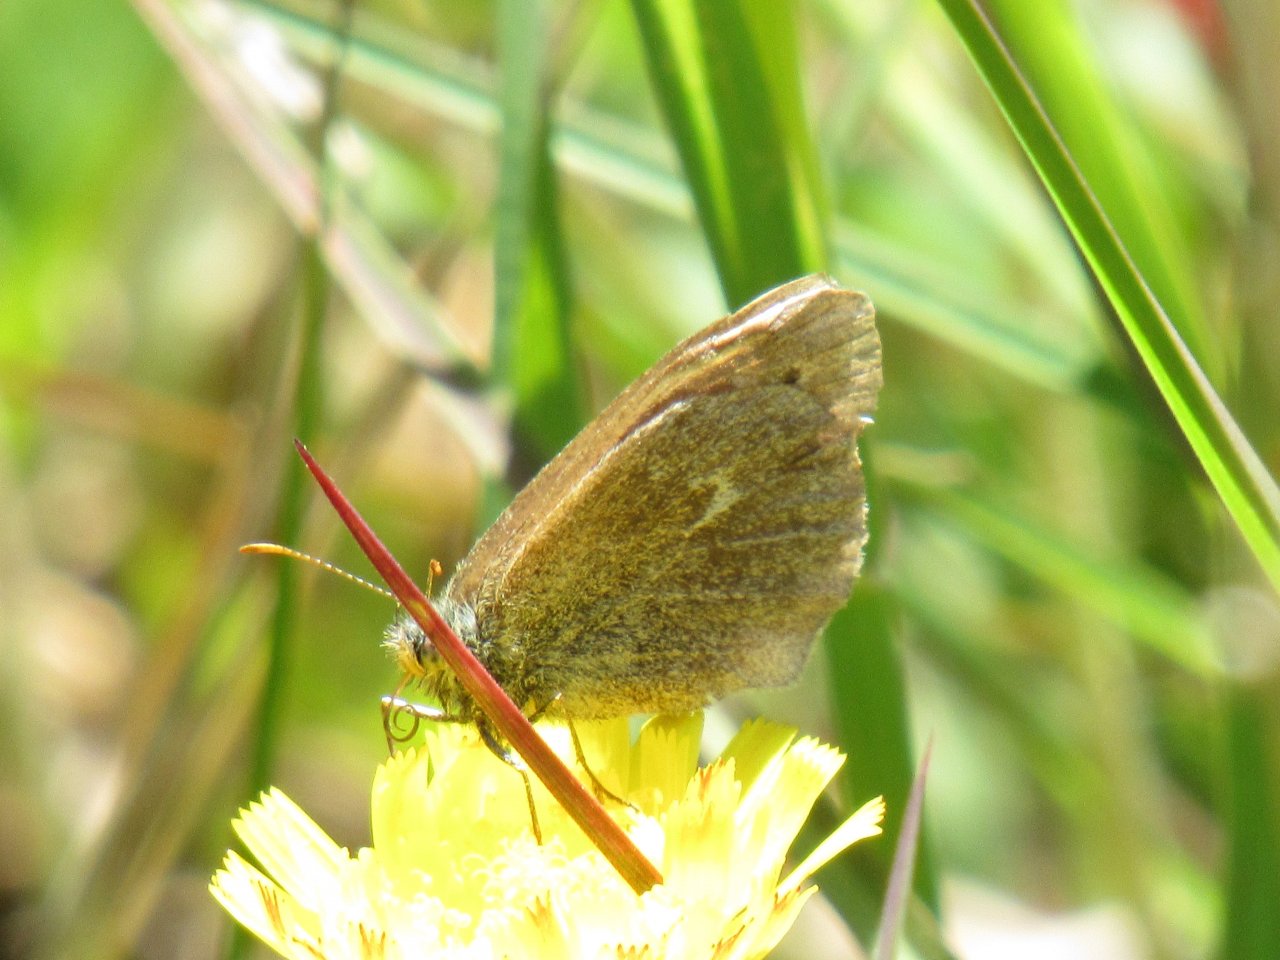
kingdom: Animalia
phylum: Arthropoda
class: Insecta
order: Lepidoptera
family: Nymphalidae
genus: Coenonympha
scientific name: Coenonympha tullia
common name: Large Heath
